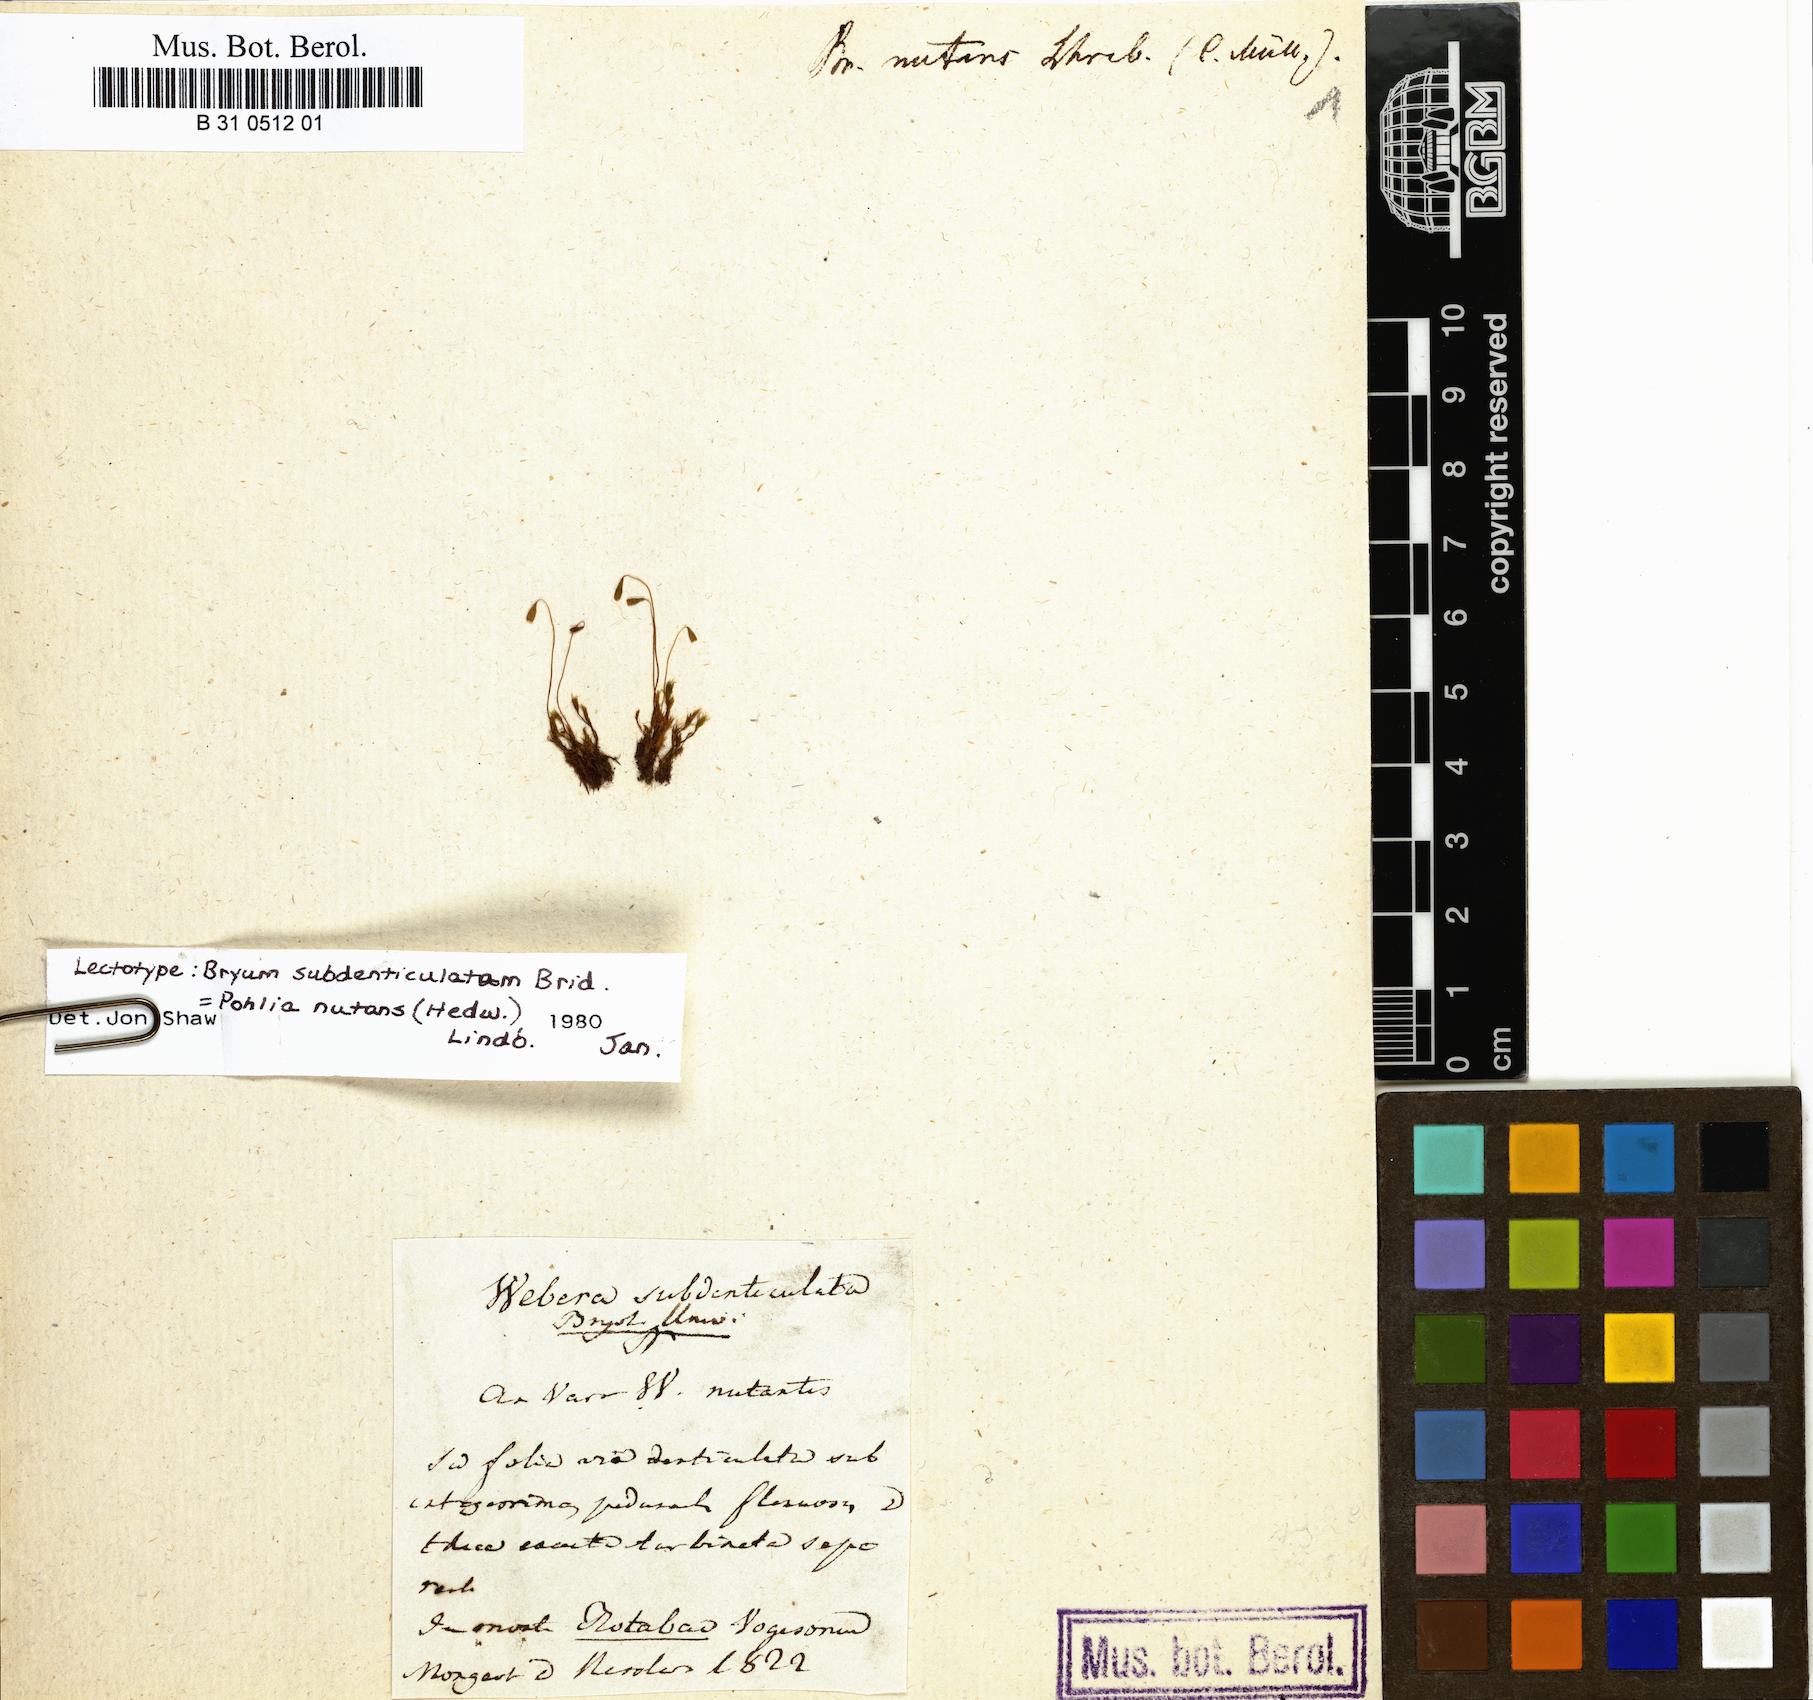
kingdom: Plantae
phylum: Bryophyta
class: Bryopsida
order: Bryales
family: Mniaceae
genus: Pohlia
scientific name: Pohlia nutans
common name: Nodding thread-moss
